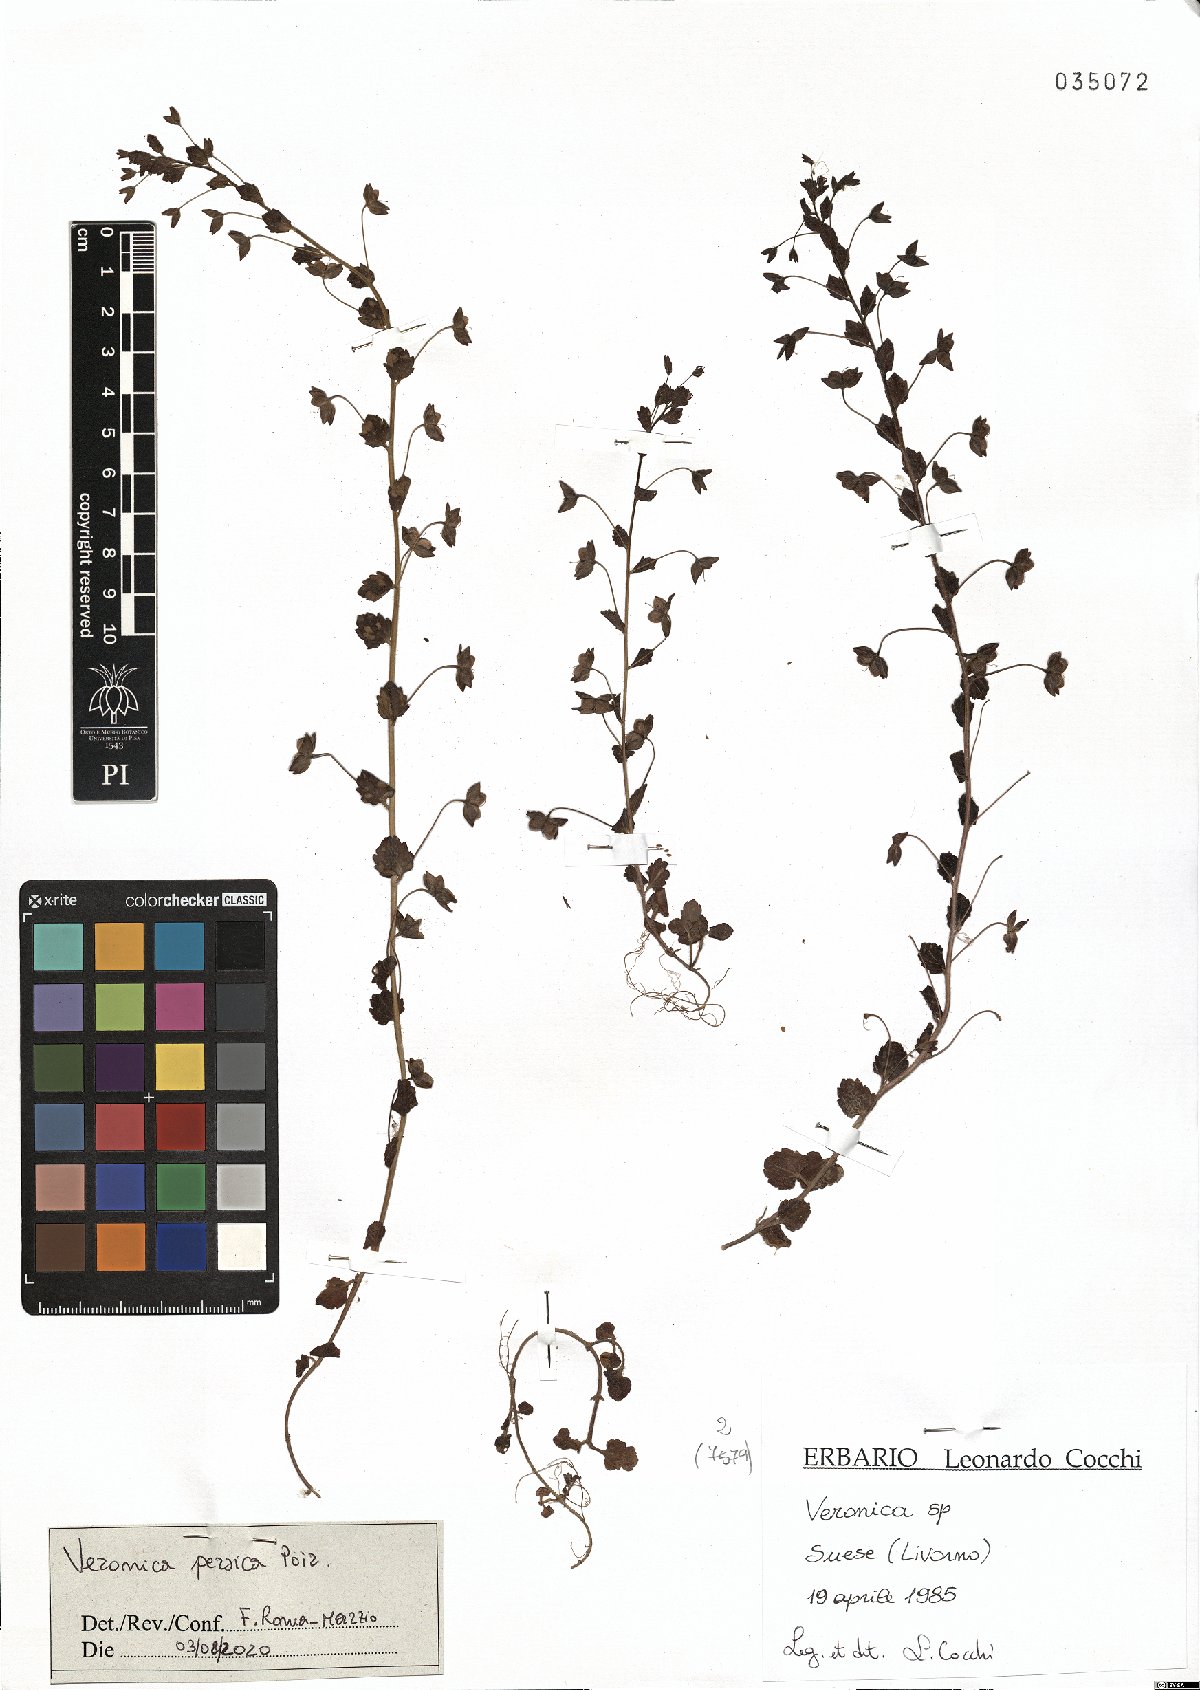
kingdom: Plantae
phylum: Tracheophyta
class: Magnoliopsida
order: Lamiales
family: Plantaginaceae
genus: Veronica
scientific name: Veronica persica
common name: Common field-speedwell
